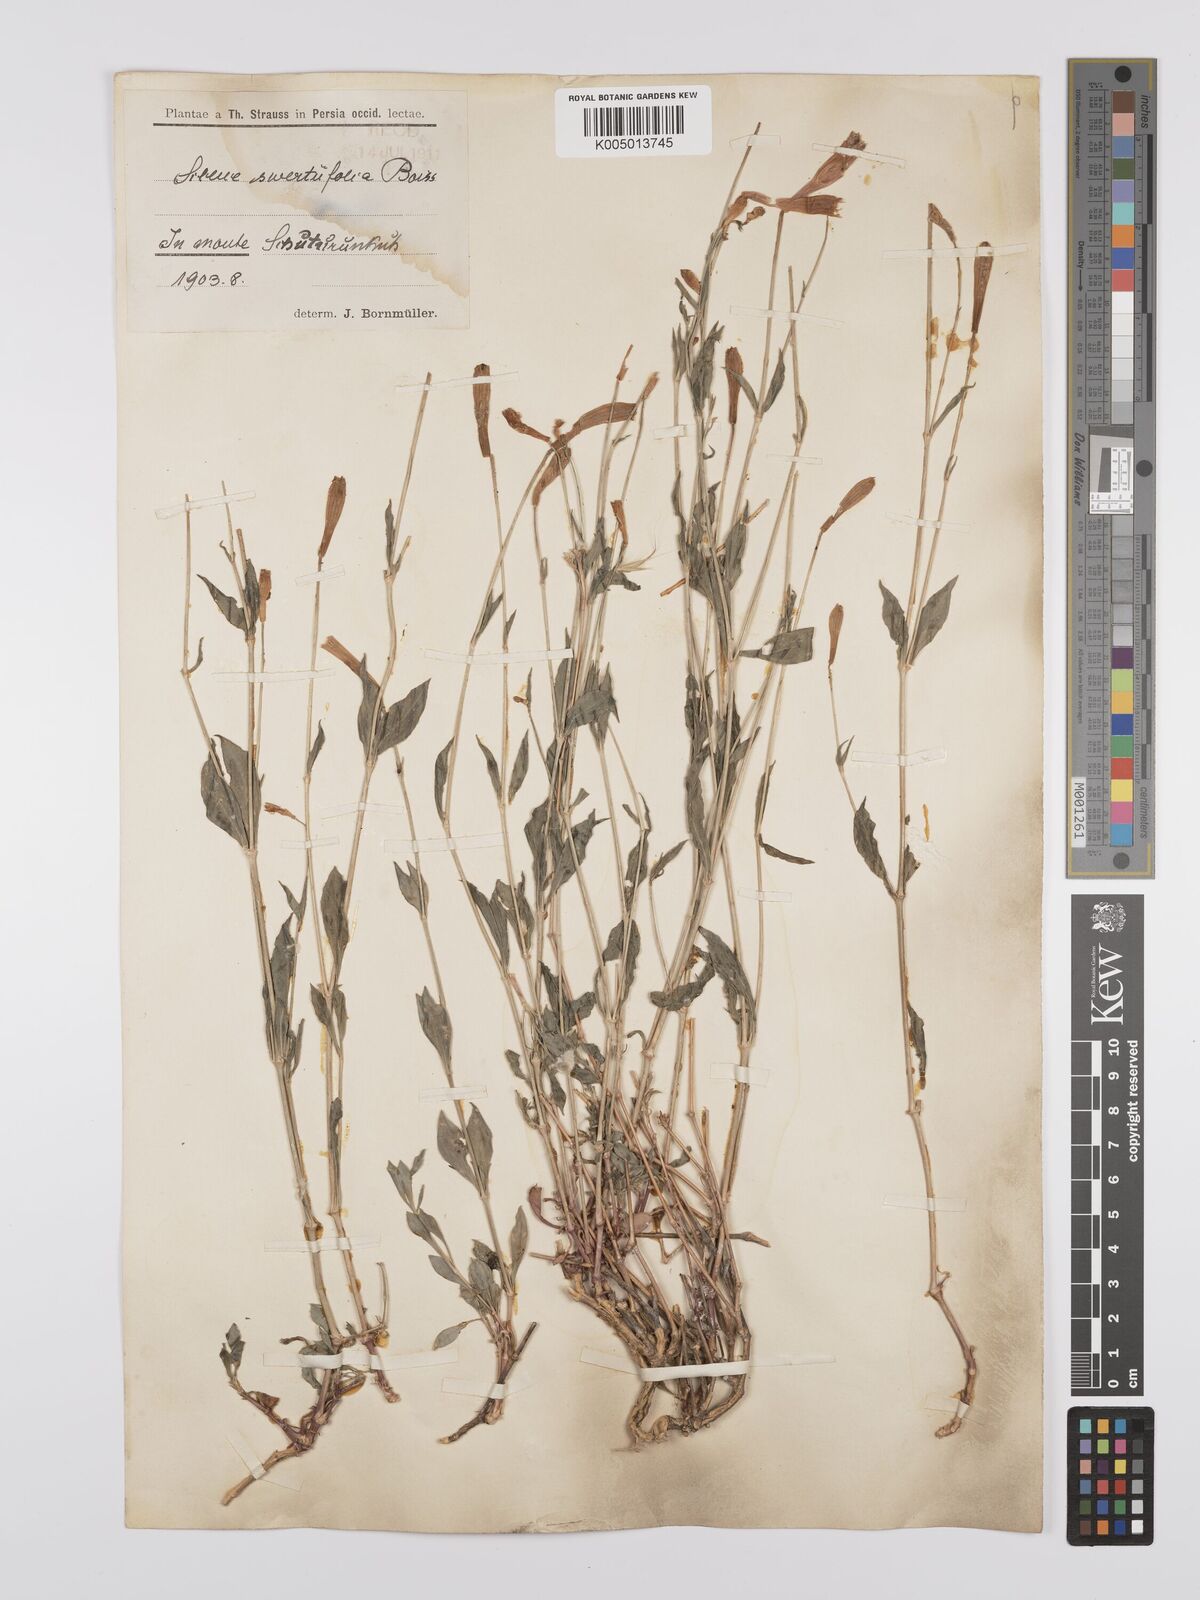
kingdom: Plantae
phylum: Tracheophyta
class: Magnoliopsida
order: Caryophyllales
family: Caryophyllaceae
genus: Silene
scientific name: Silene swertiifolia
